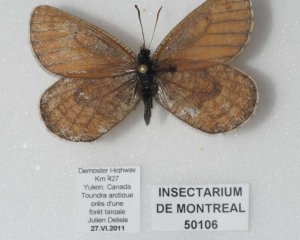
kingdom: Animalia
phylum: Arthropoda
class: Insecta
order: Lepidoptera
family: Nymphalidae
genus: Oeneis
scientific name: Oeneis uhleri
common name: Uhler's Arctic
